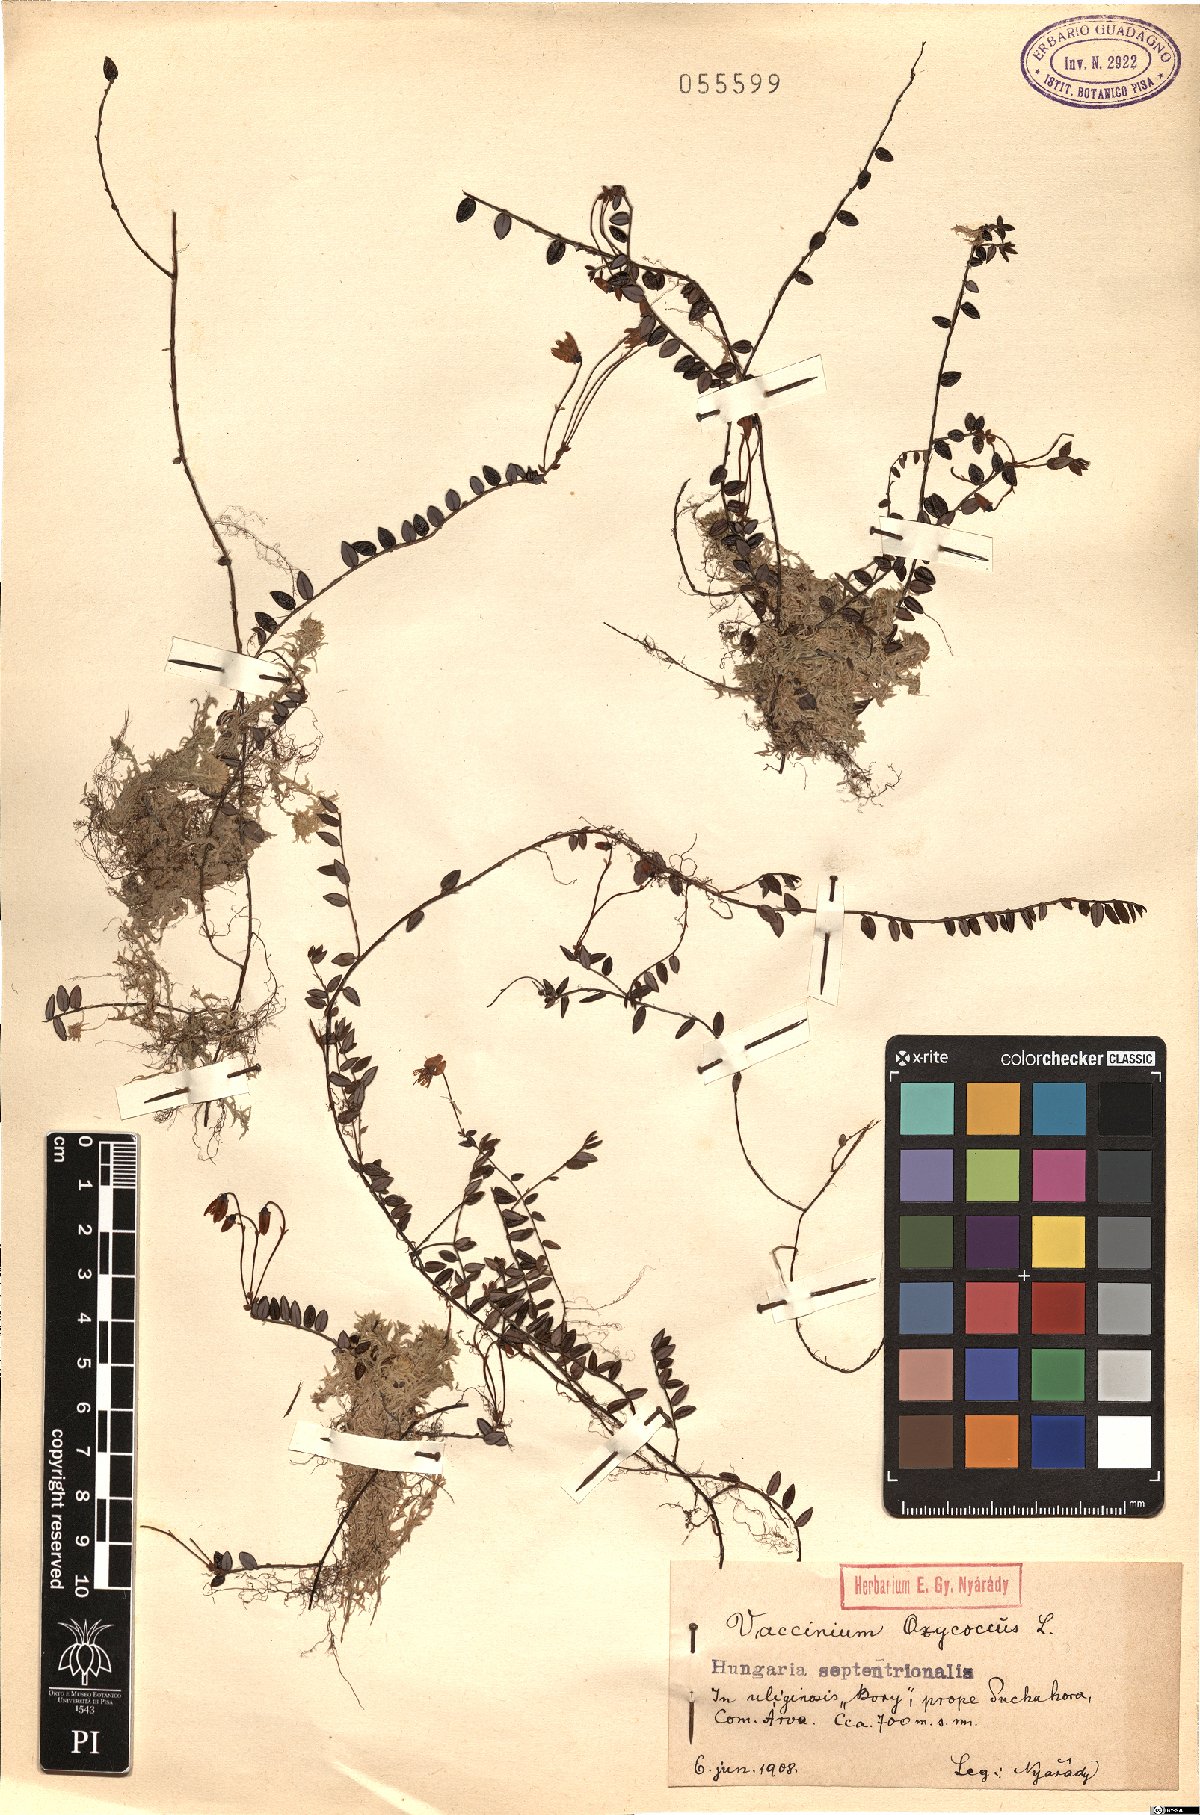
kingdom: Plantae
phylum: Tracheophyta
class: Magnoliopsida
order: Ericales
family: Ericaceae
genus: Vaccinium
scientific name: Vaccinium oxycoccos
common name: Cranberry
